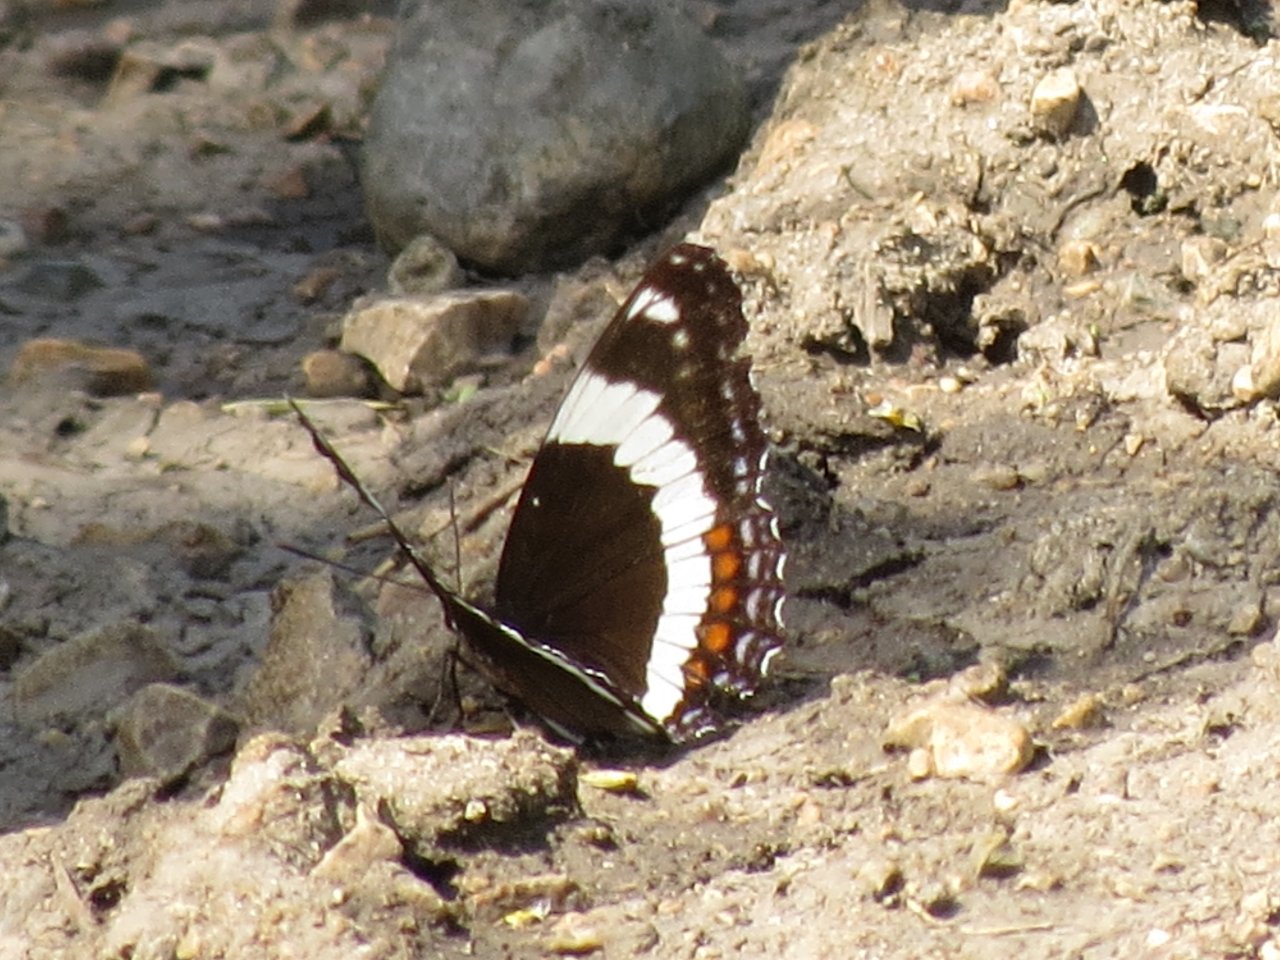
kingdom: Animalia
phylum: Arthropoda
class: Insecta
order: Lepidoptera
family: Nymphalidae
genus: Limenitis
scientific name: Limenitis arthemis
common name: Red-spotted Admiral
